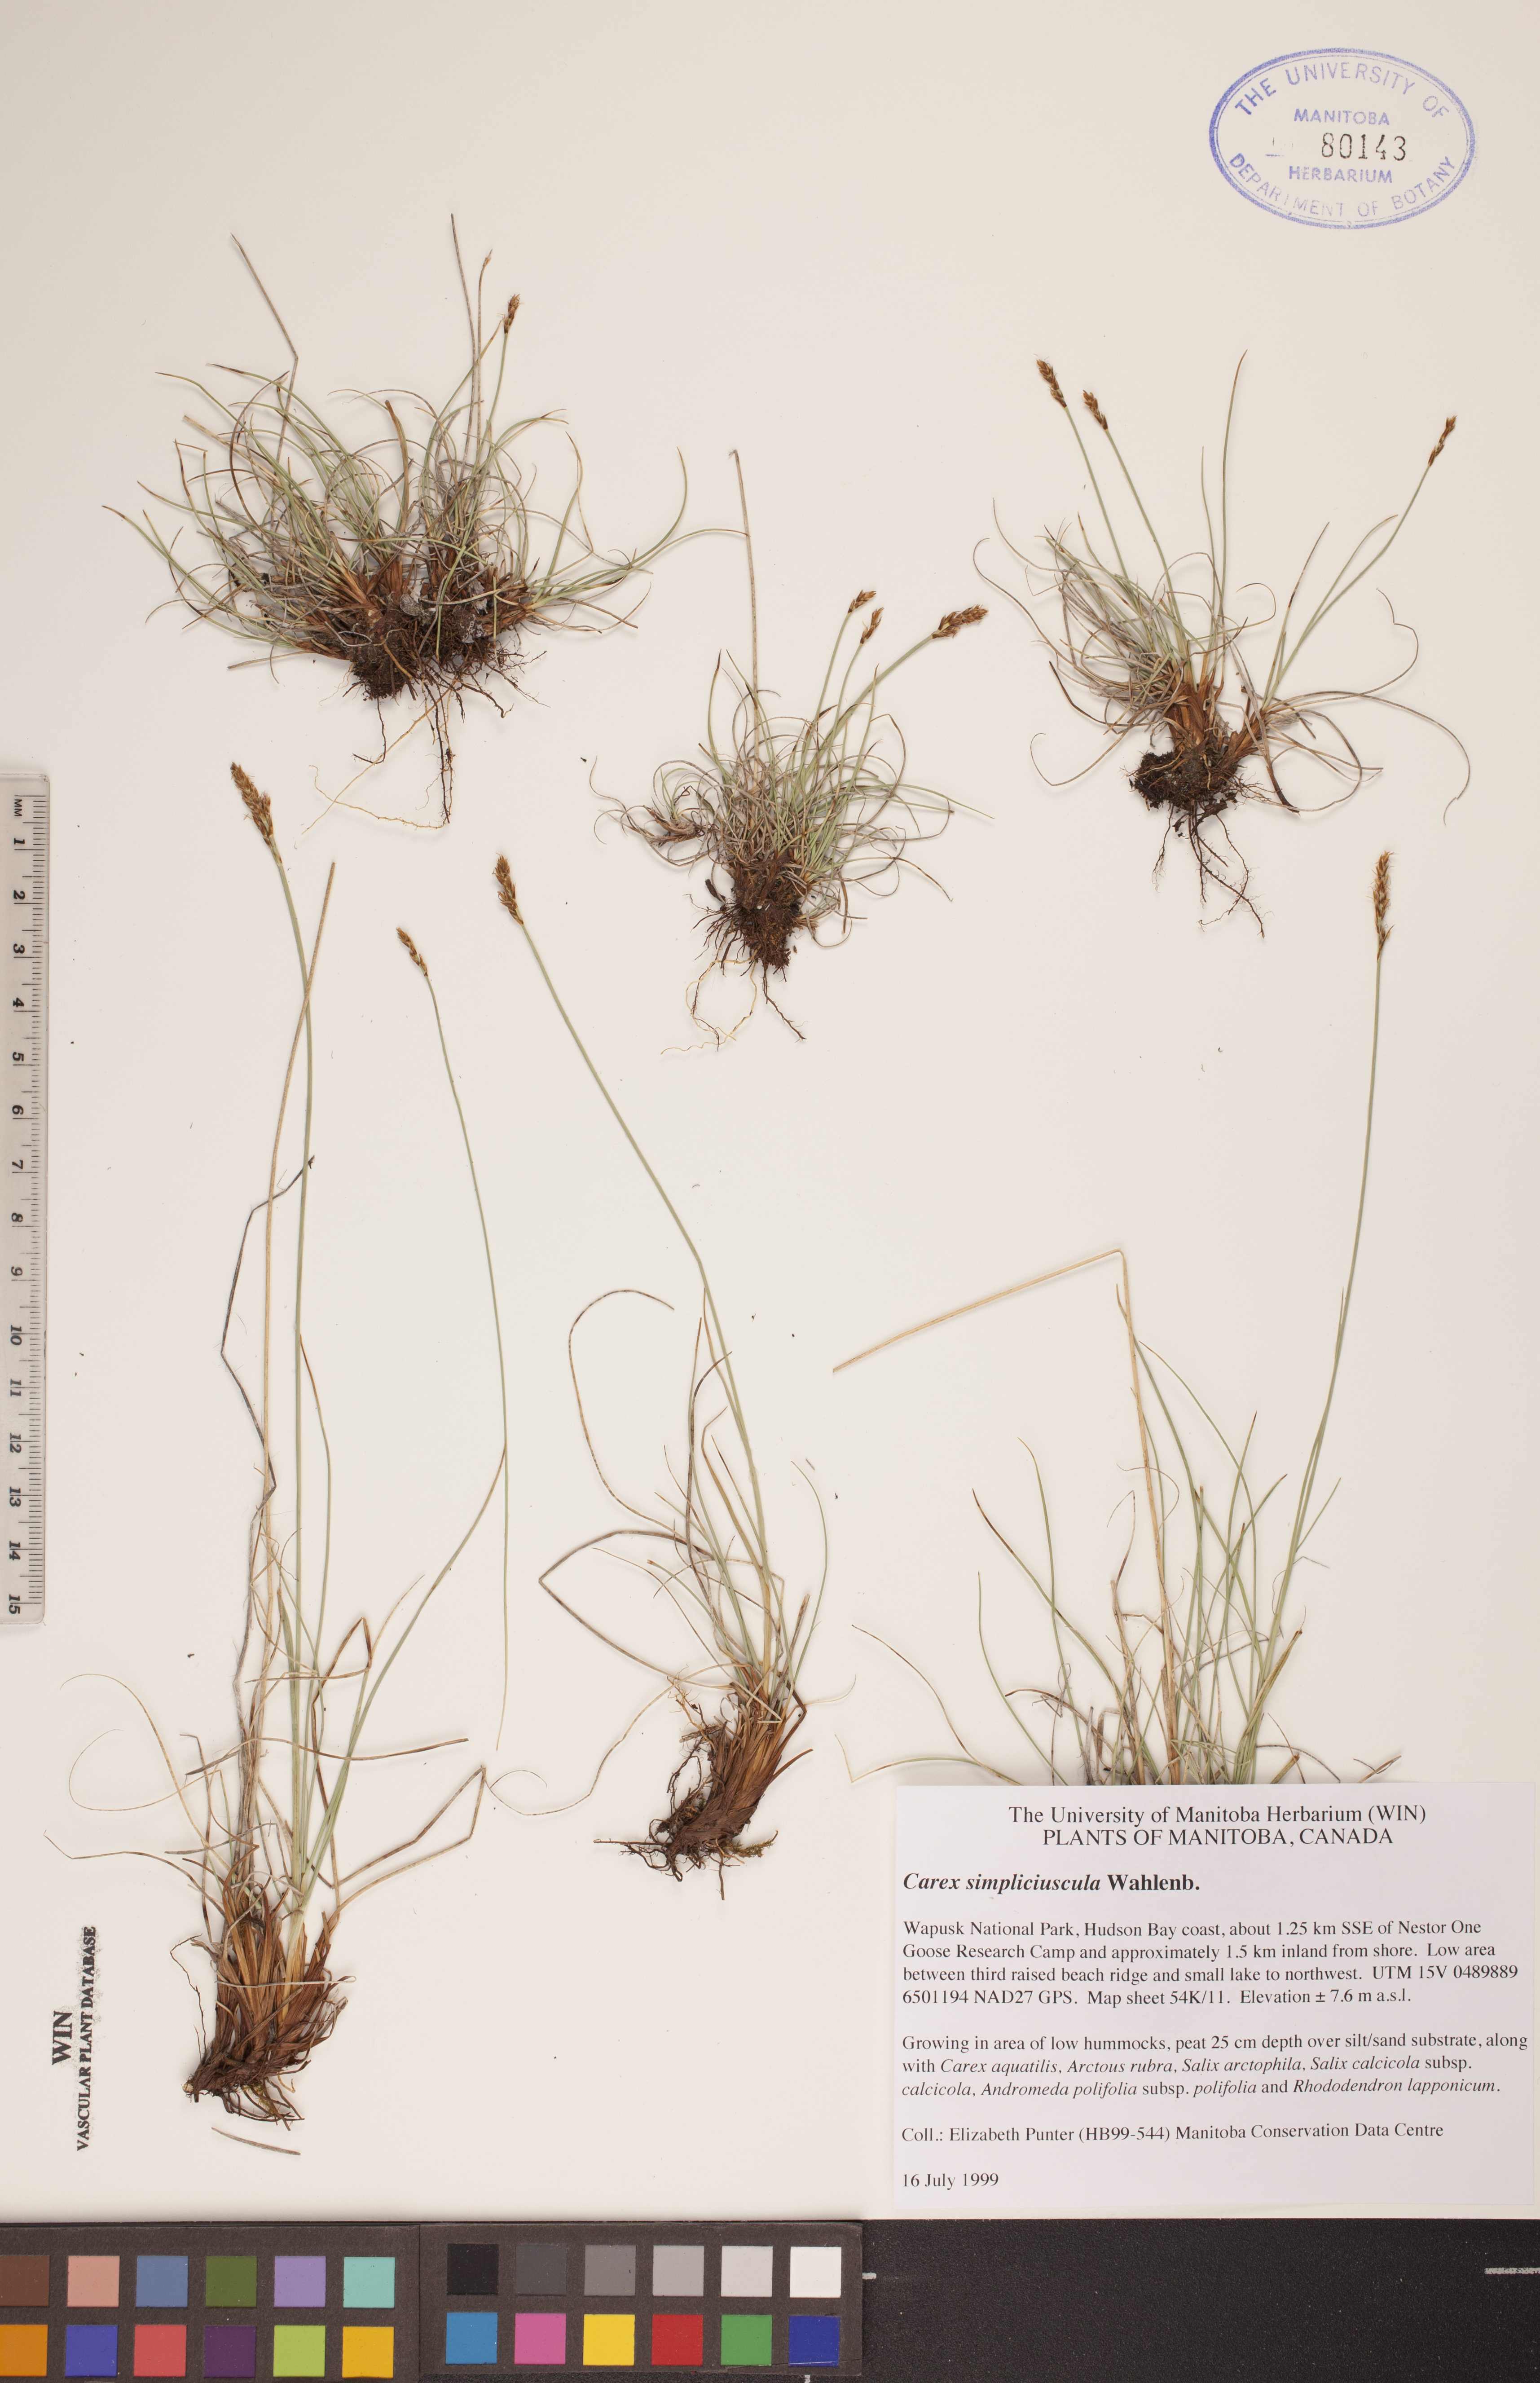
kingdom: Plantae
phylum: Tracheophyta
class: Liliopsida
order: Poales
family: Cyperaceae
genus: Carex
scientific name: Carex simpliciuscula
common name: Simple bog sedge
